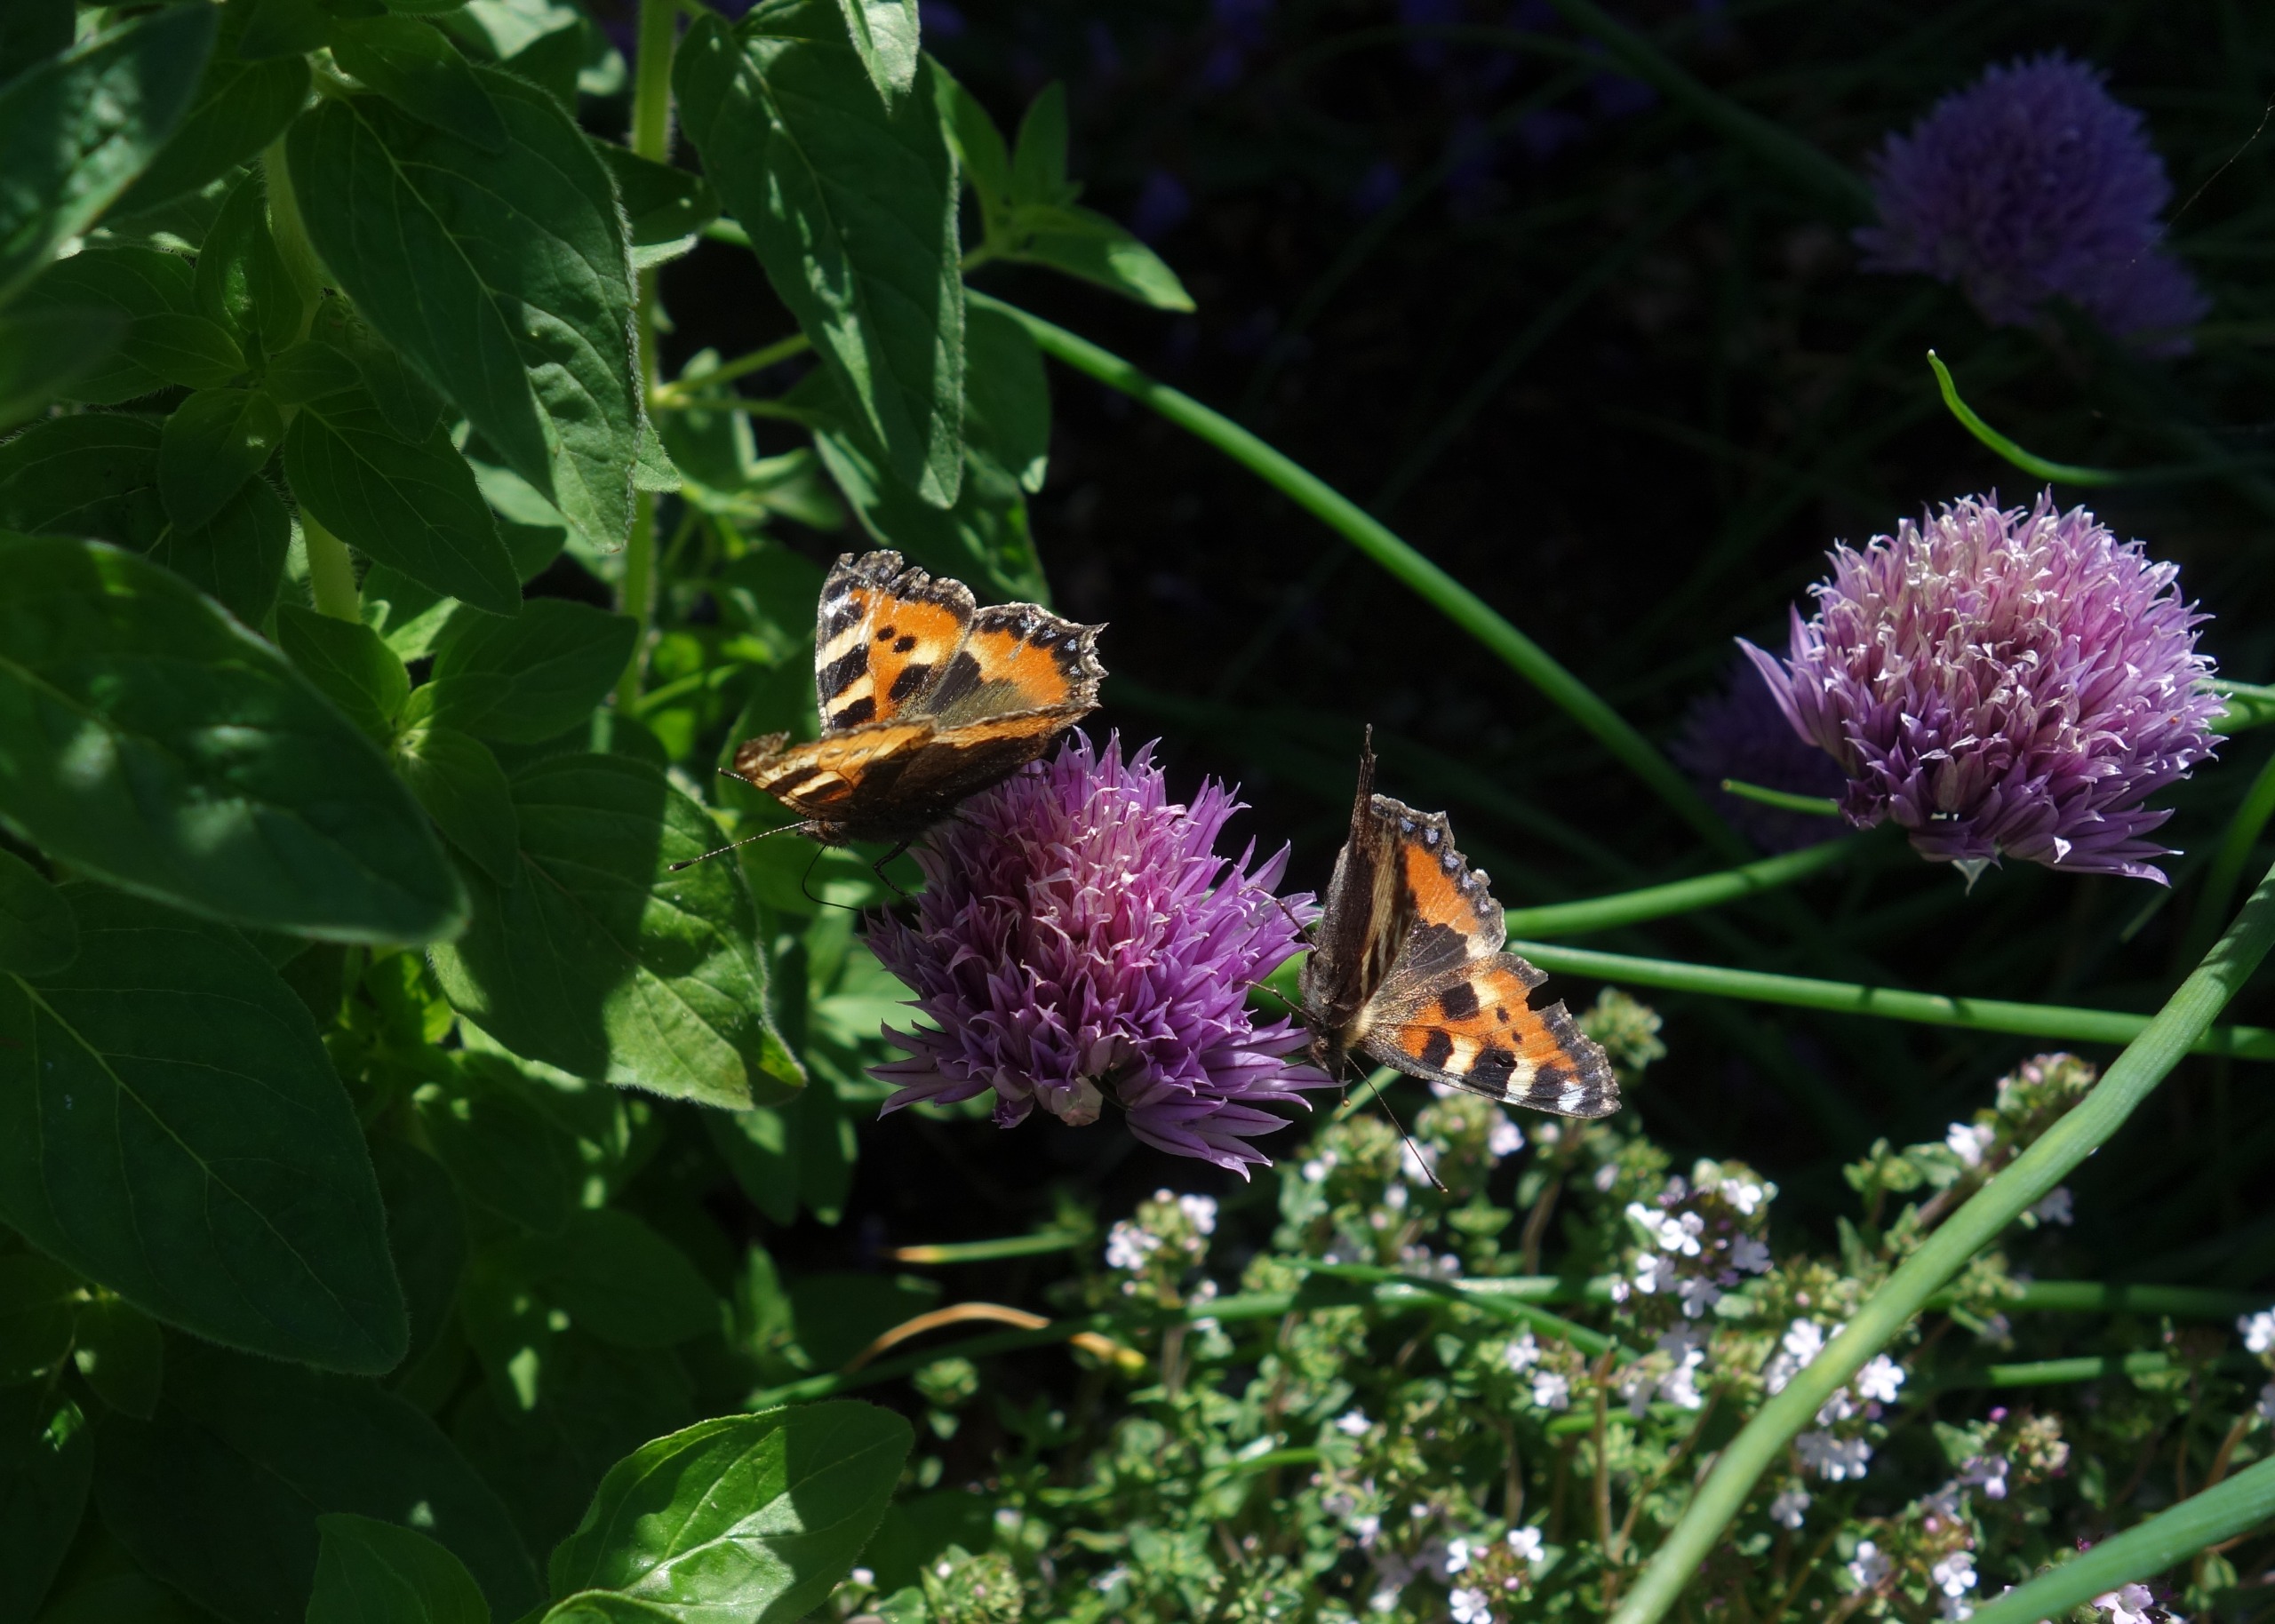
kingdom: Animalia
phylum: Arthropoda
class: Insecta
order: Lepidoptera
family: Nymphalidae
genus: Aglais
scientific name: Aglais urticae
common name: Nældens takvinge
